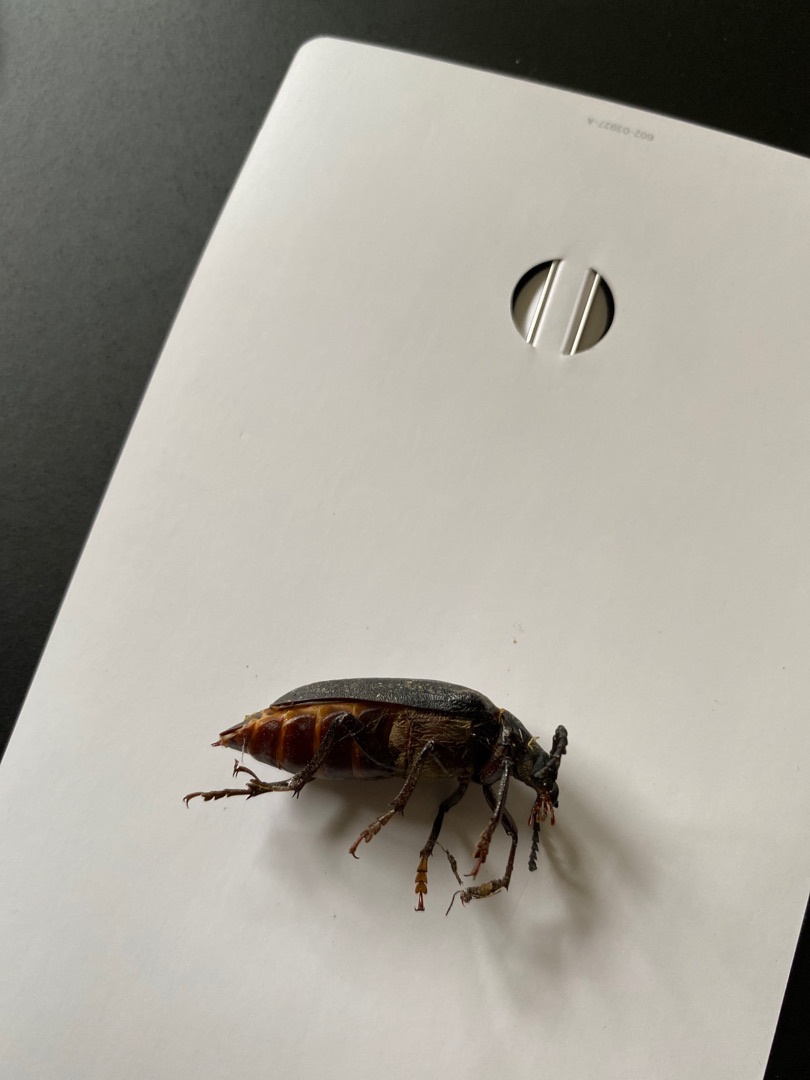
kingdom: Animalia
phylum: Arthropoda
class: Insecta
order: Coleoptera
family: Cerambycidae
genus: Prionus
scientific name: Prionus coriarius
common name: Garver
